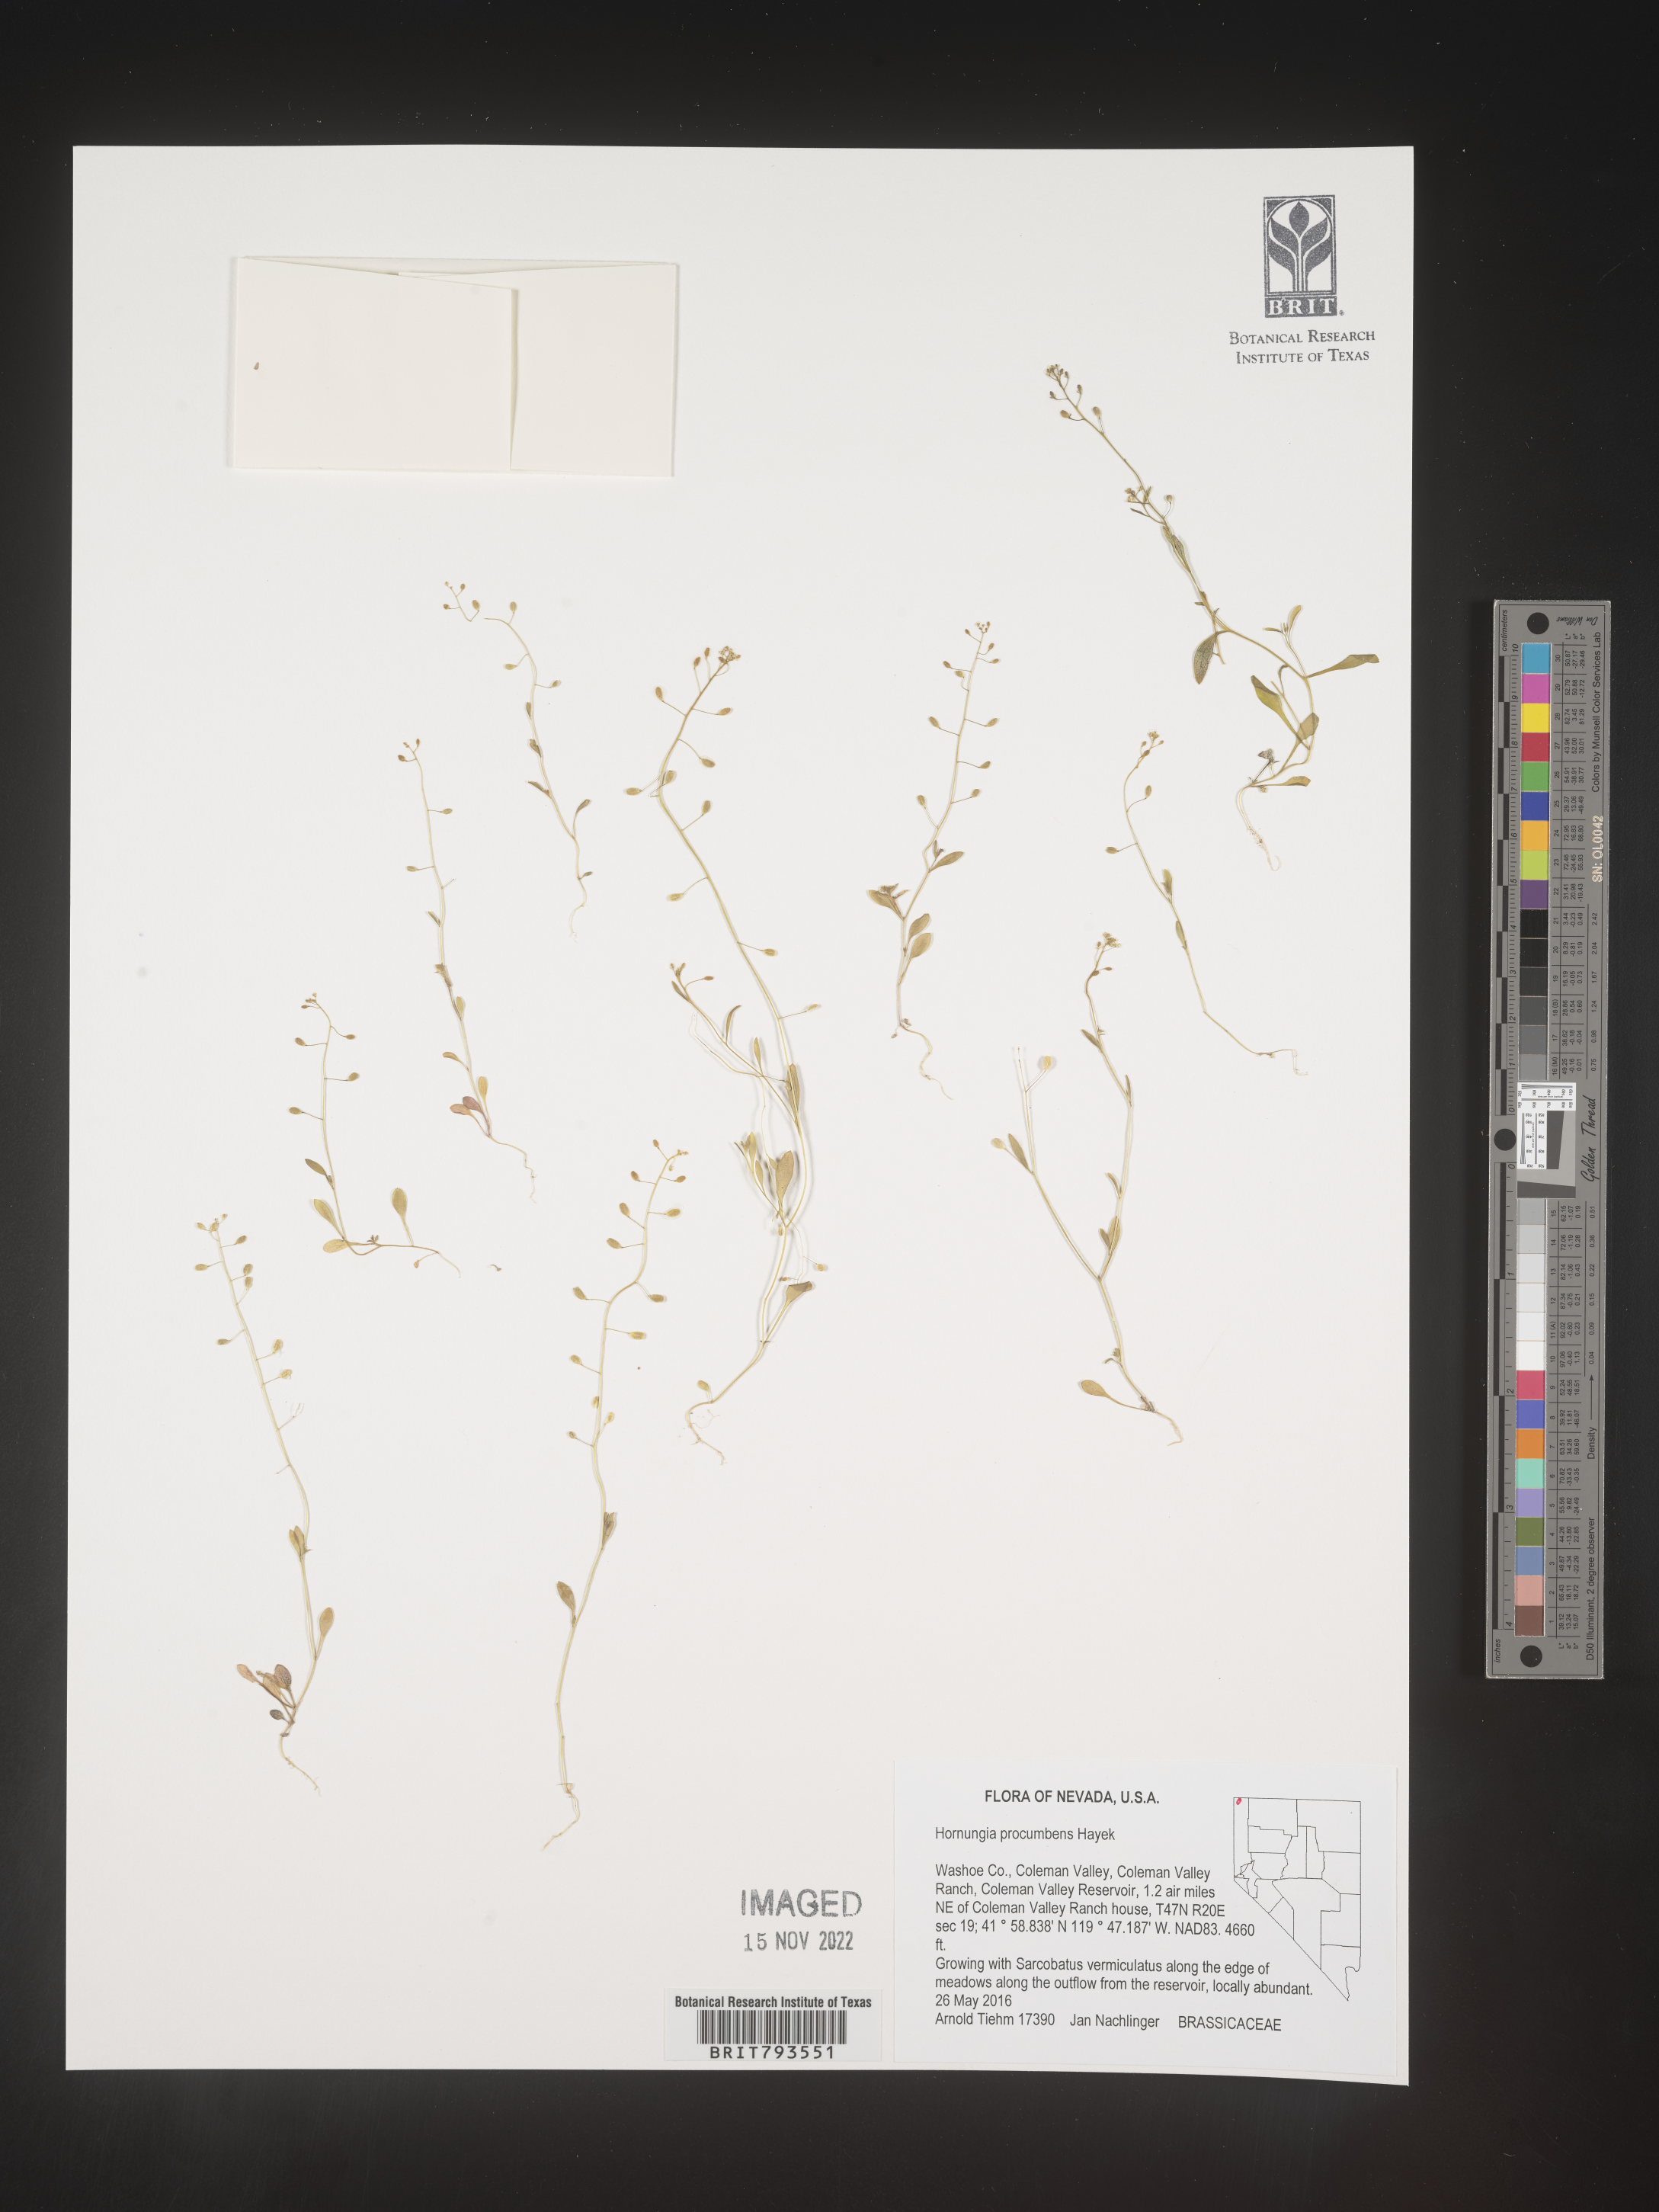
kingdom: Plantae
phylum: Tracheophyta
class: Magnoliopsida
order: Brassicales
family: Brassicaceae
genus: Hornungia
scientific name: Hornungia procumbens
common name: Oval purse
